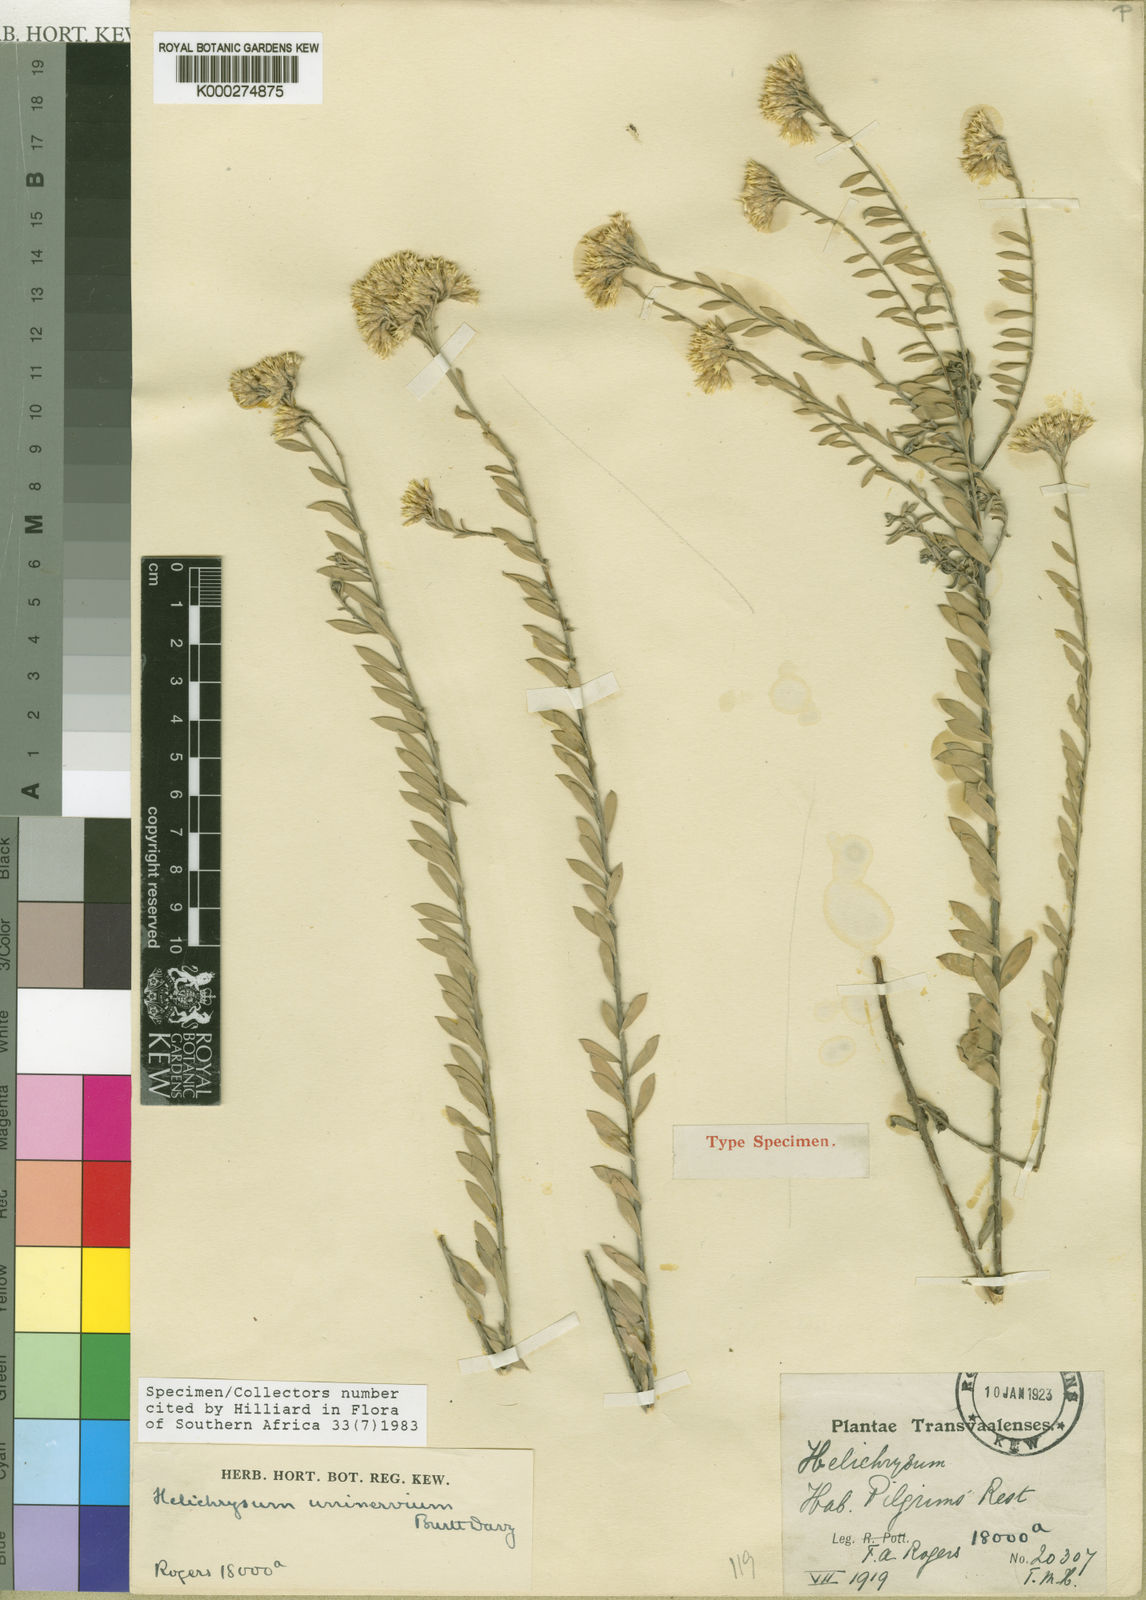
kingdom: Plantae
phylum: Tracheophyta
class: Magnoliopsida
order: Asterales
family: Asteraceae
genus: Helichrysum
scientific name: Helichrysum uninervium
